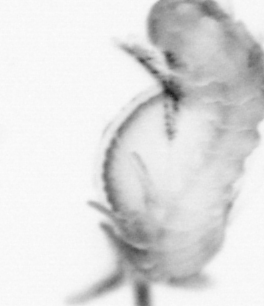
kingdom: Animalia
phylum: Annelida
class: Polychaeta
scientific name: Polychaeta
